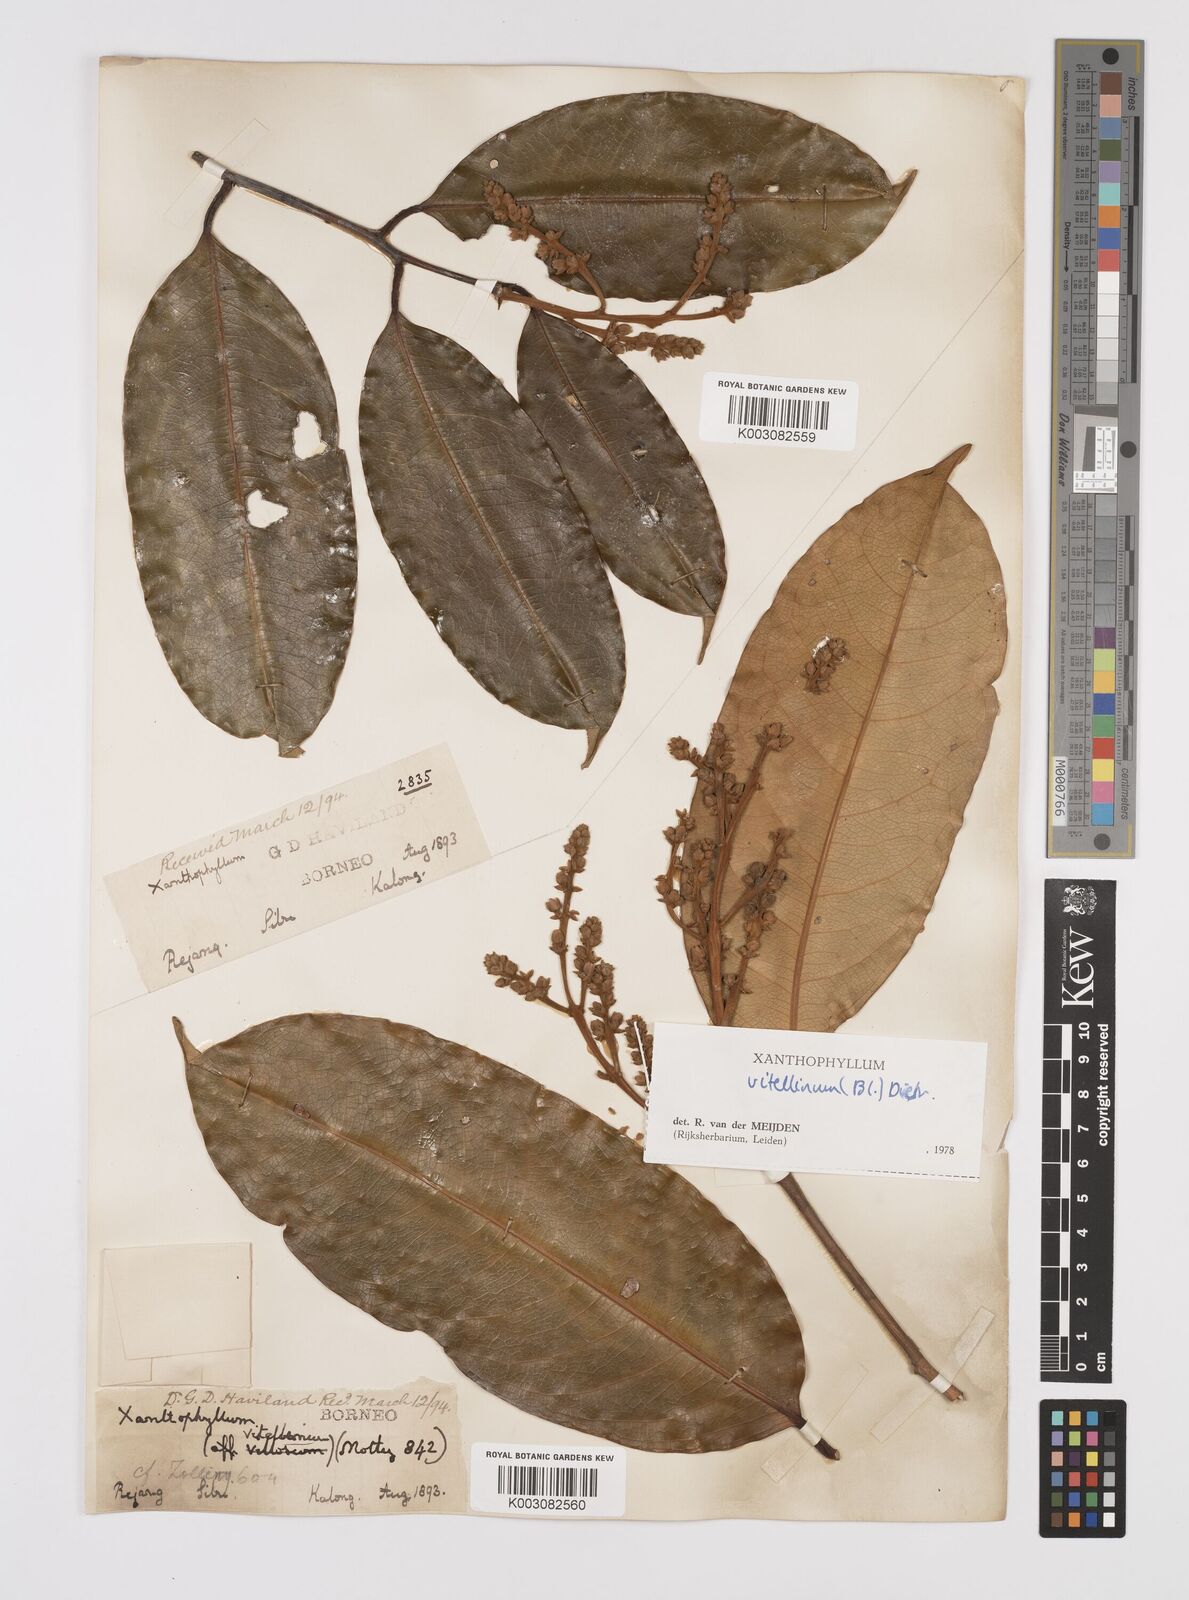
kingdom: Plantae
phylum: Tracheophyta
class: Magnoliopsida
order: Fabales
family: Polygalaceae
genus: Xanthophyllum
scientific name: Xanthophyllum vitellinum
